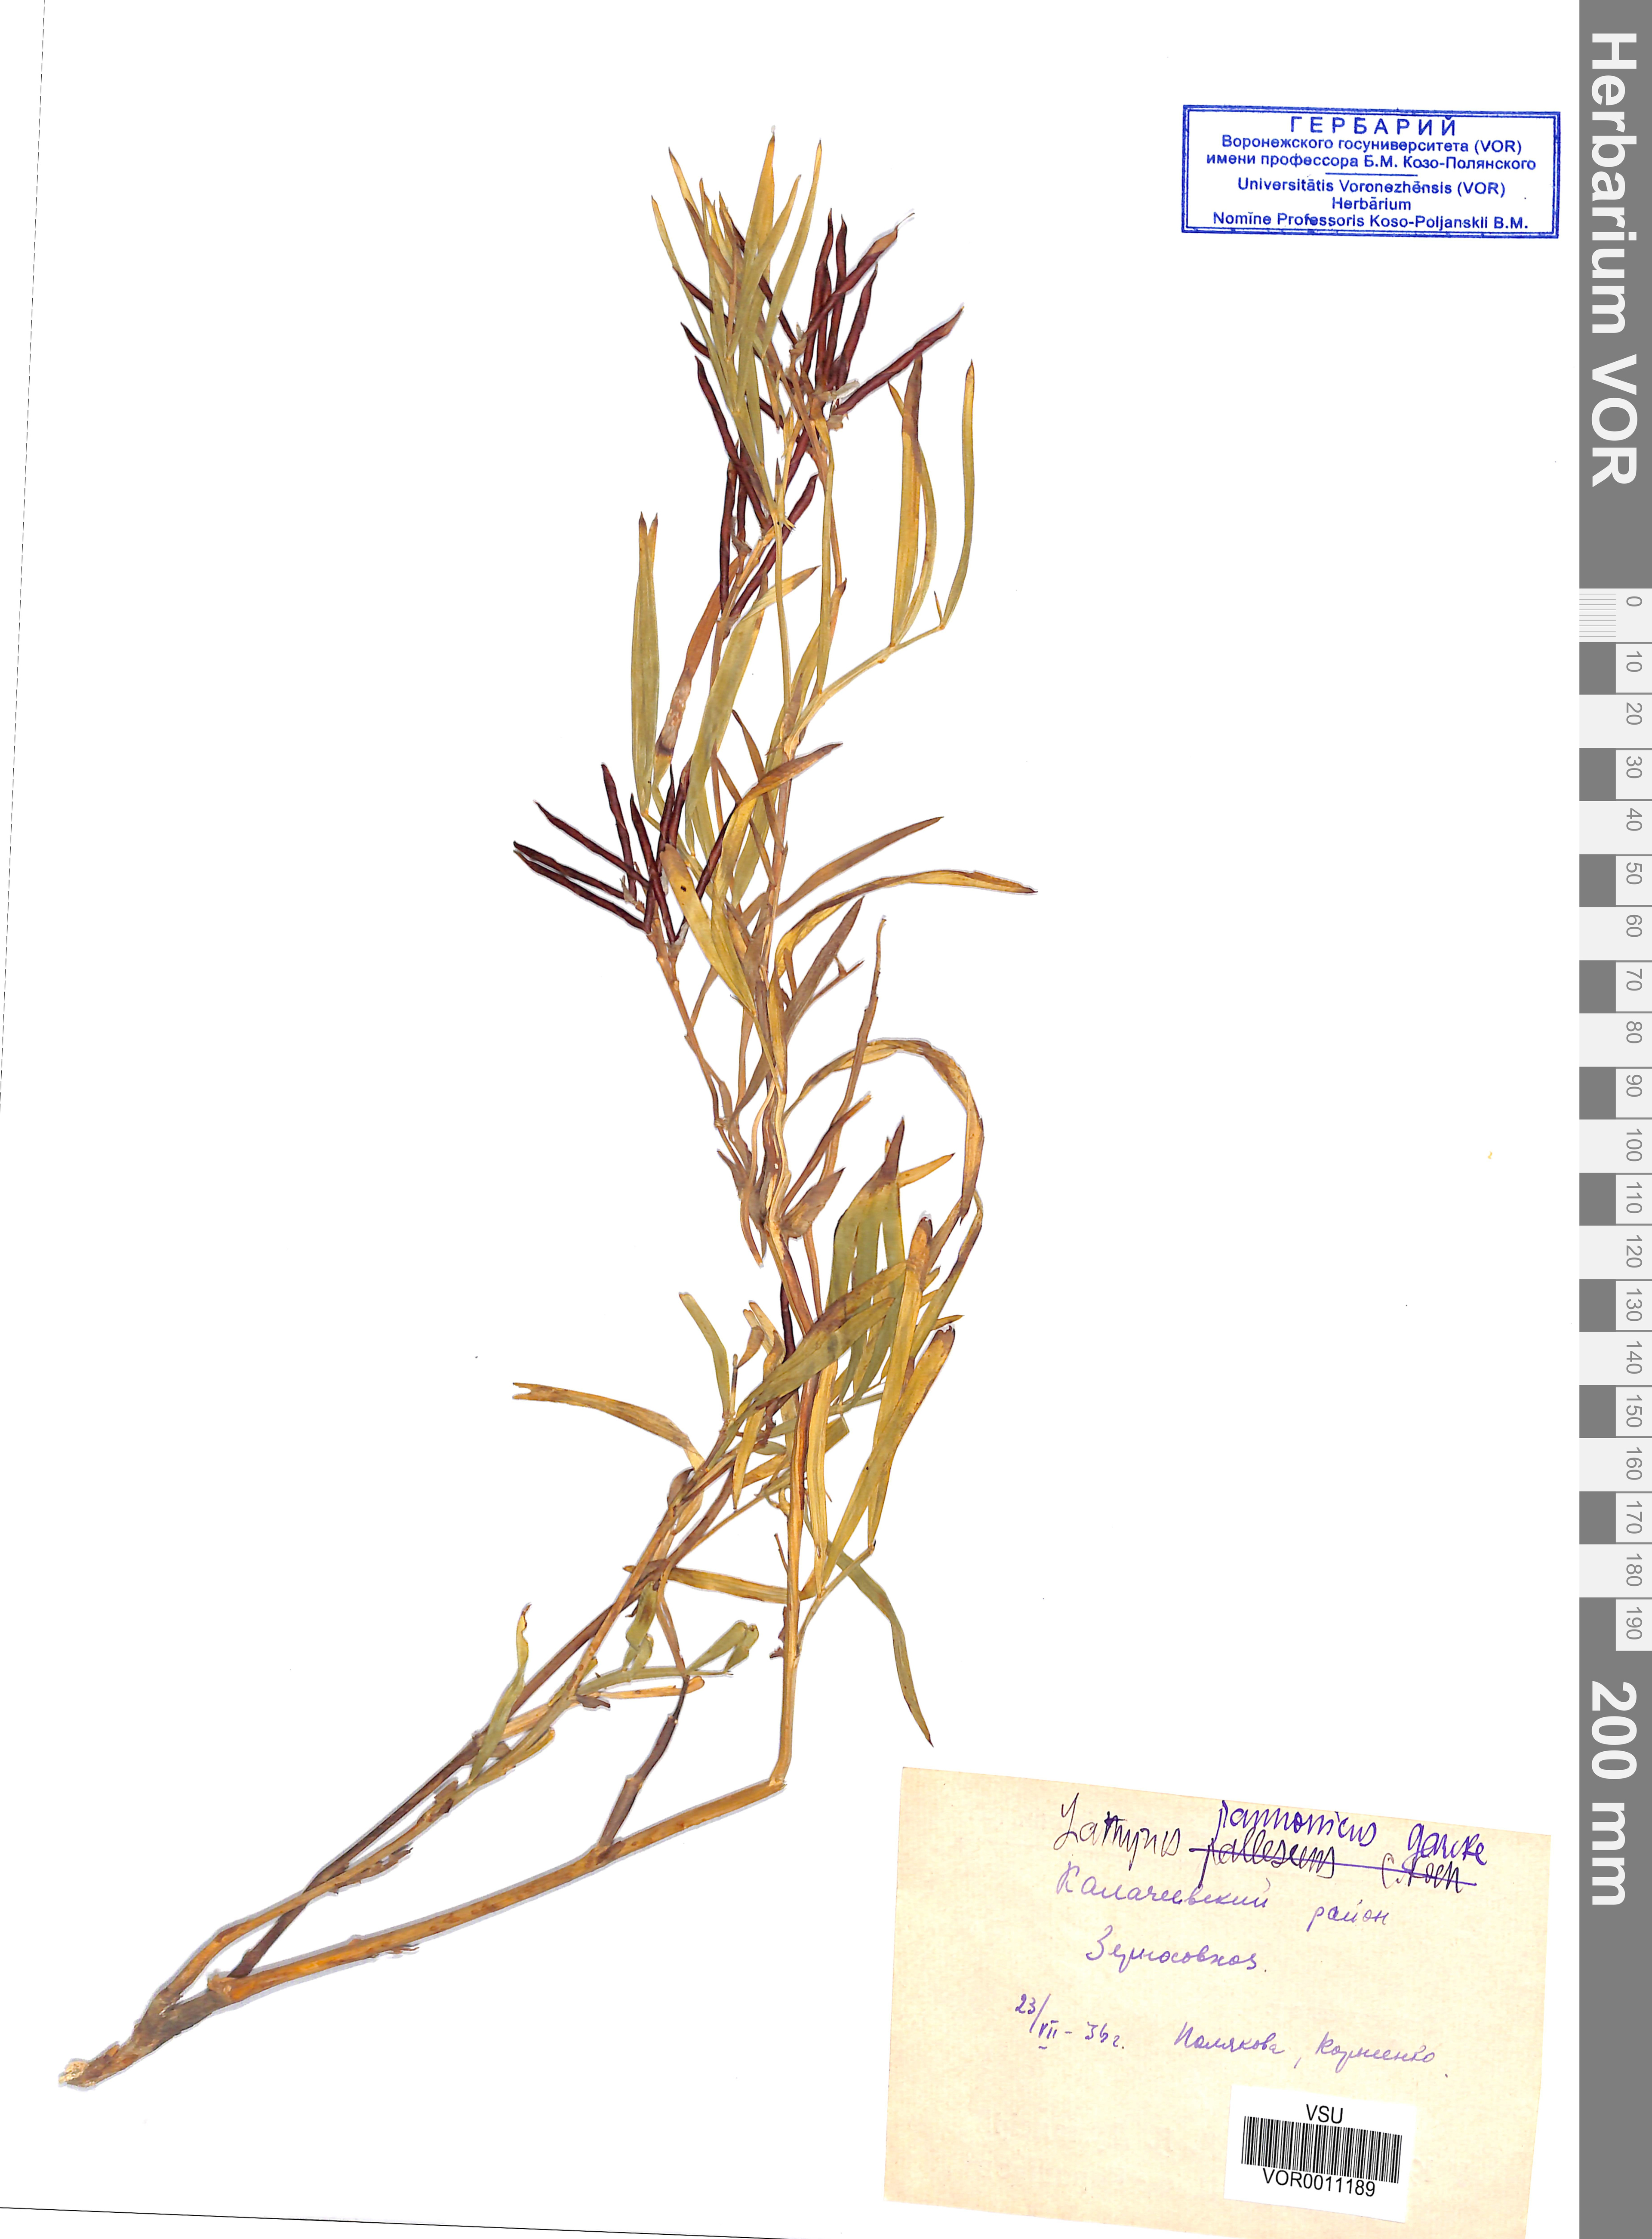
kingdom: Plantae
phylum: Tracheophyta
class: Magnoliopsida
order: Fabales
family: Fabaceae
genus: Lathyrus
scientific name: Lathyrus pannonicus
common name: Pea
